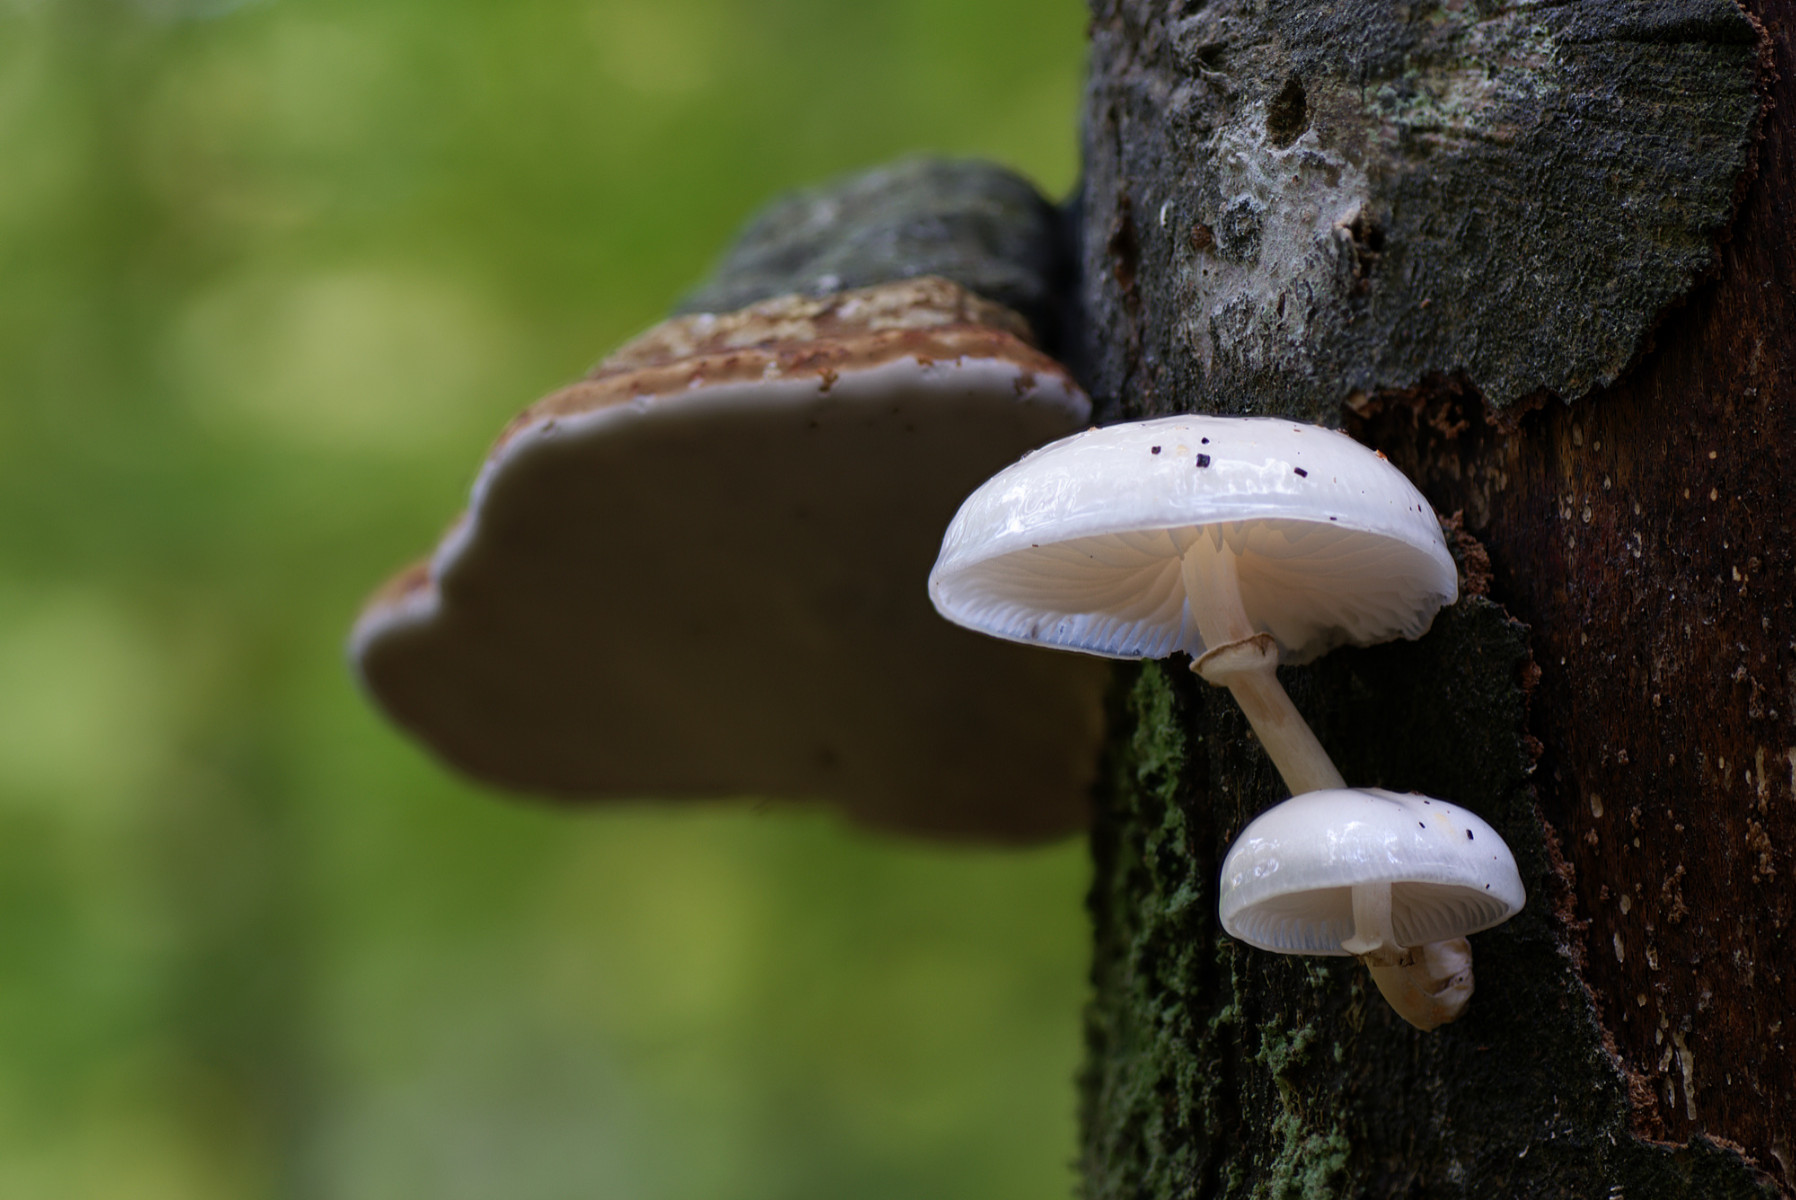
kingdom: Fungi
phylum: Basidiomycota
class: Agaricomycetes
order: Agaricales
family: Physalacriaceae
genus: Mucidula
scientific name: Mucidula mucida
